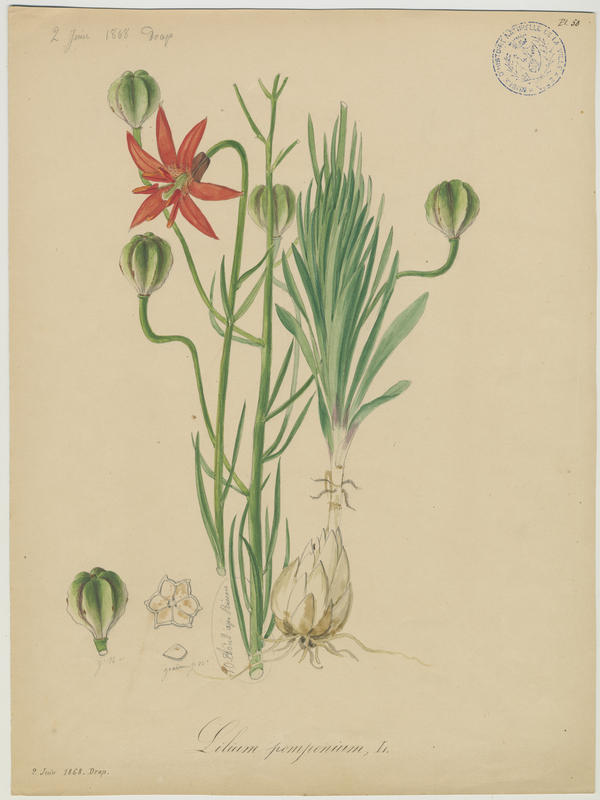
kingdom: Plantae
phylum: Tracheophyta
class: Liliopsida
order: Liliales
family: Liliaceae
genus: Lilium
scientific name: Lilium pomponium
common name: Minor turk's-cap lily
